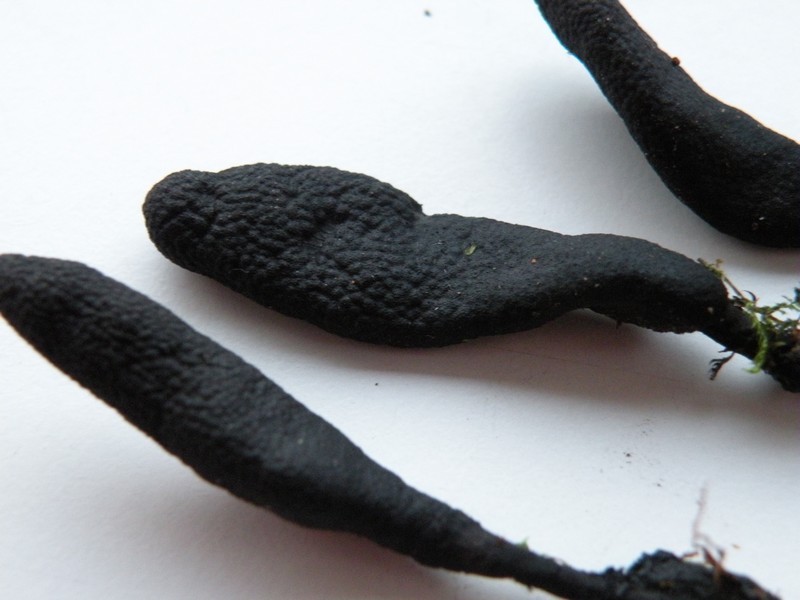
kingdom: Fungi
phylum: Ascomycota
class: Sordariomycetes
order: Xylariales
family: Xylariaceae
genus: Xylaria
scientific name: Xylaria longipes
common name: slank stødsvamp
